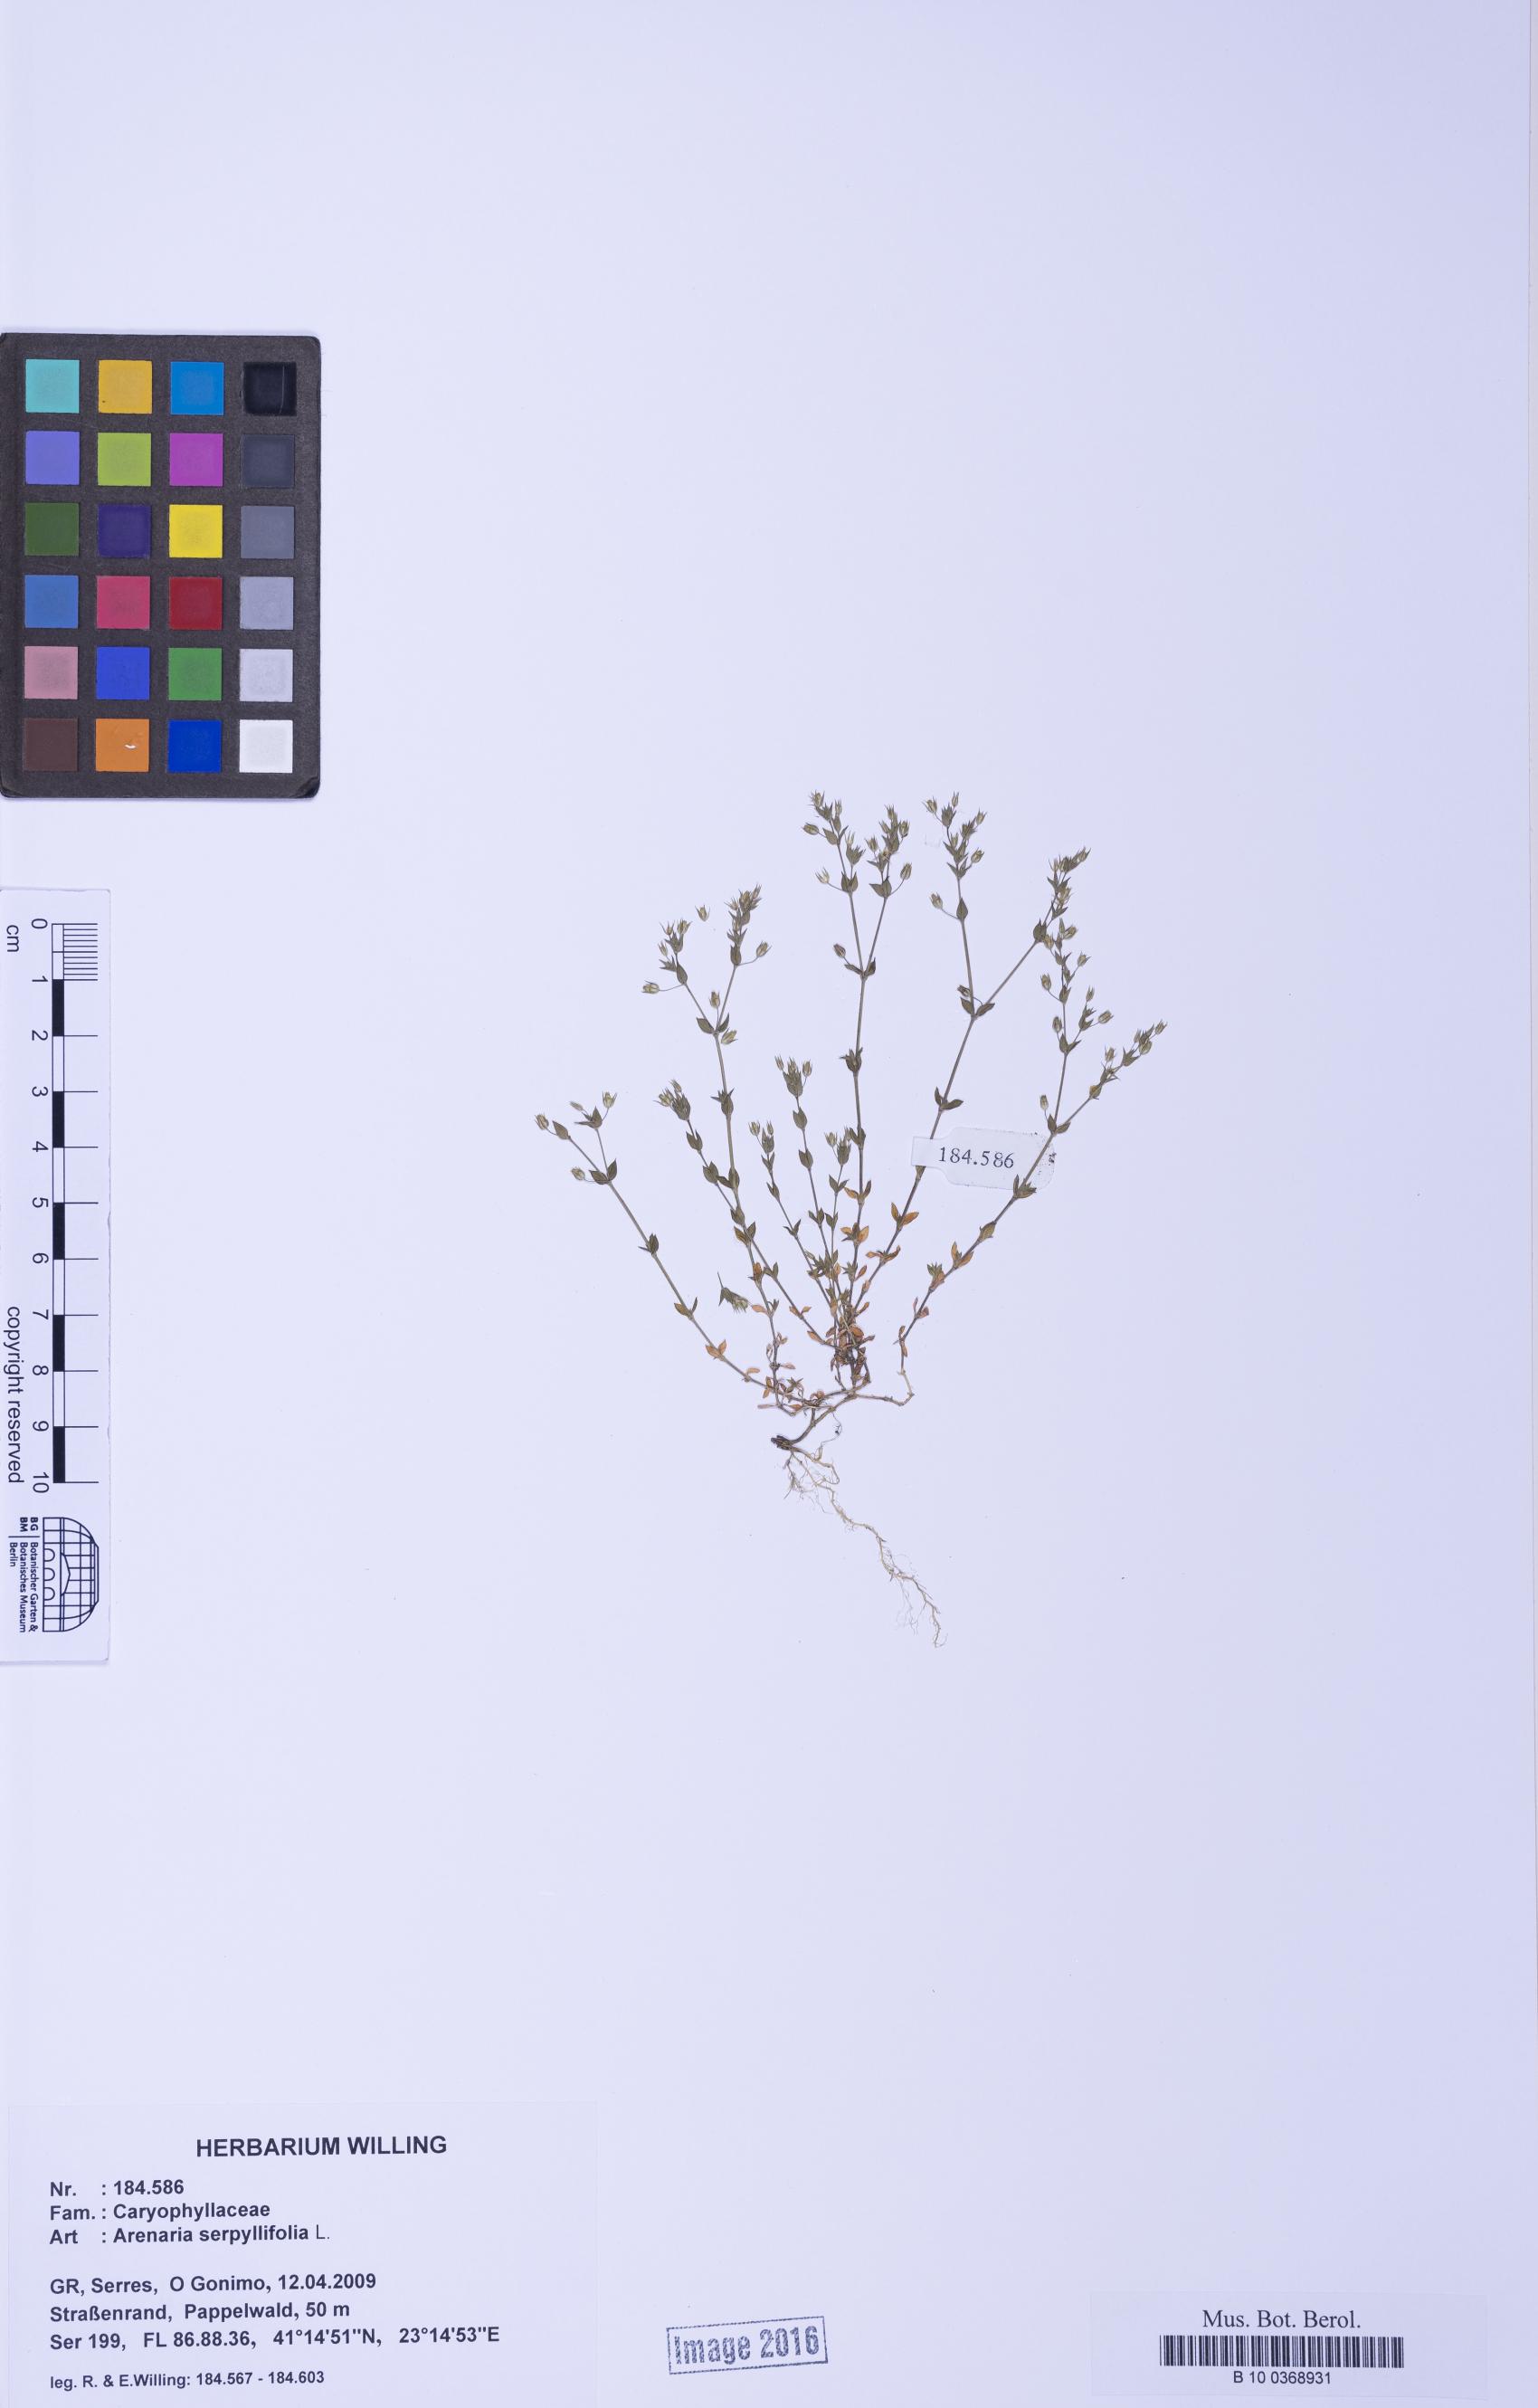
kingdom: Plantae
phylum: Tracheophyta
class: Magnoliopsida
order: Caryophyllales
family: Caryophyllaceae
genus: Arenaria
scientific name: Arenaria serpyllifolia
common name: Thyme-leaved sandwort
